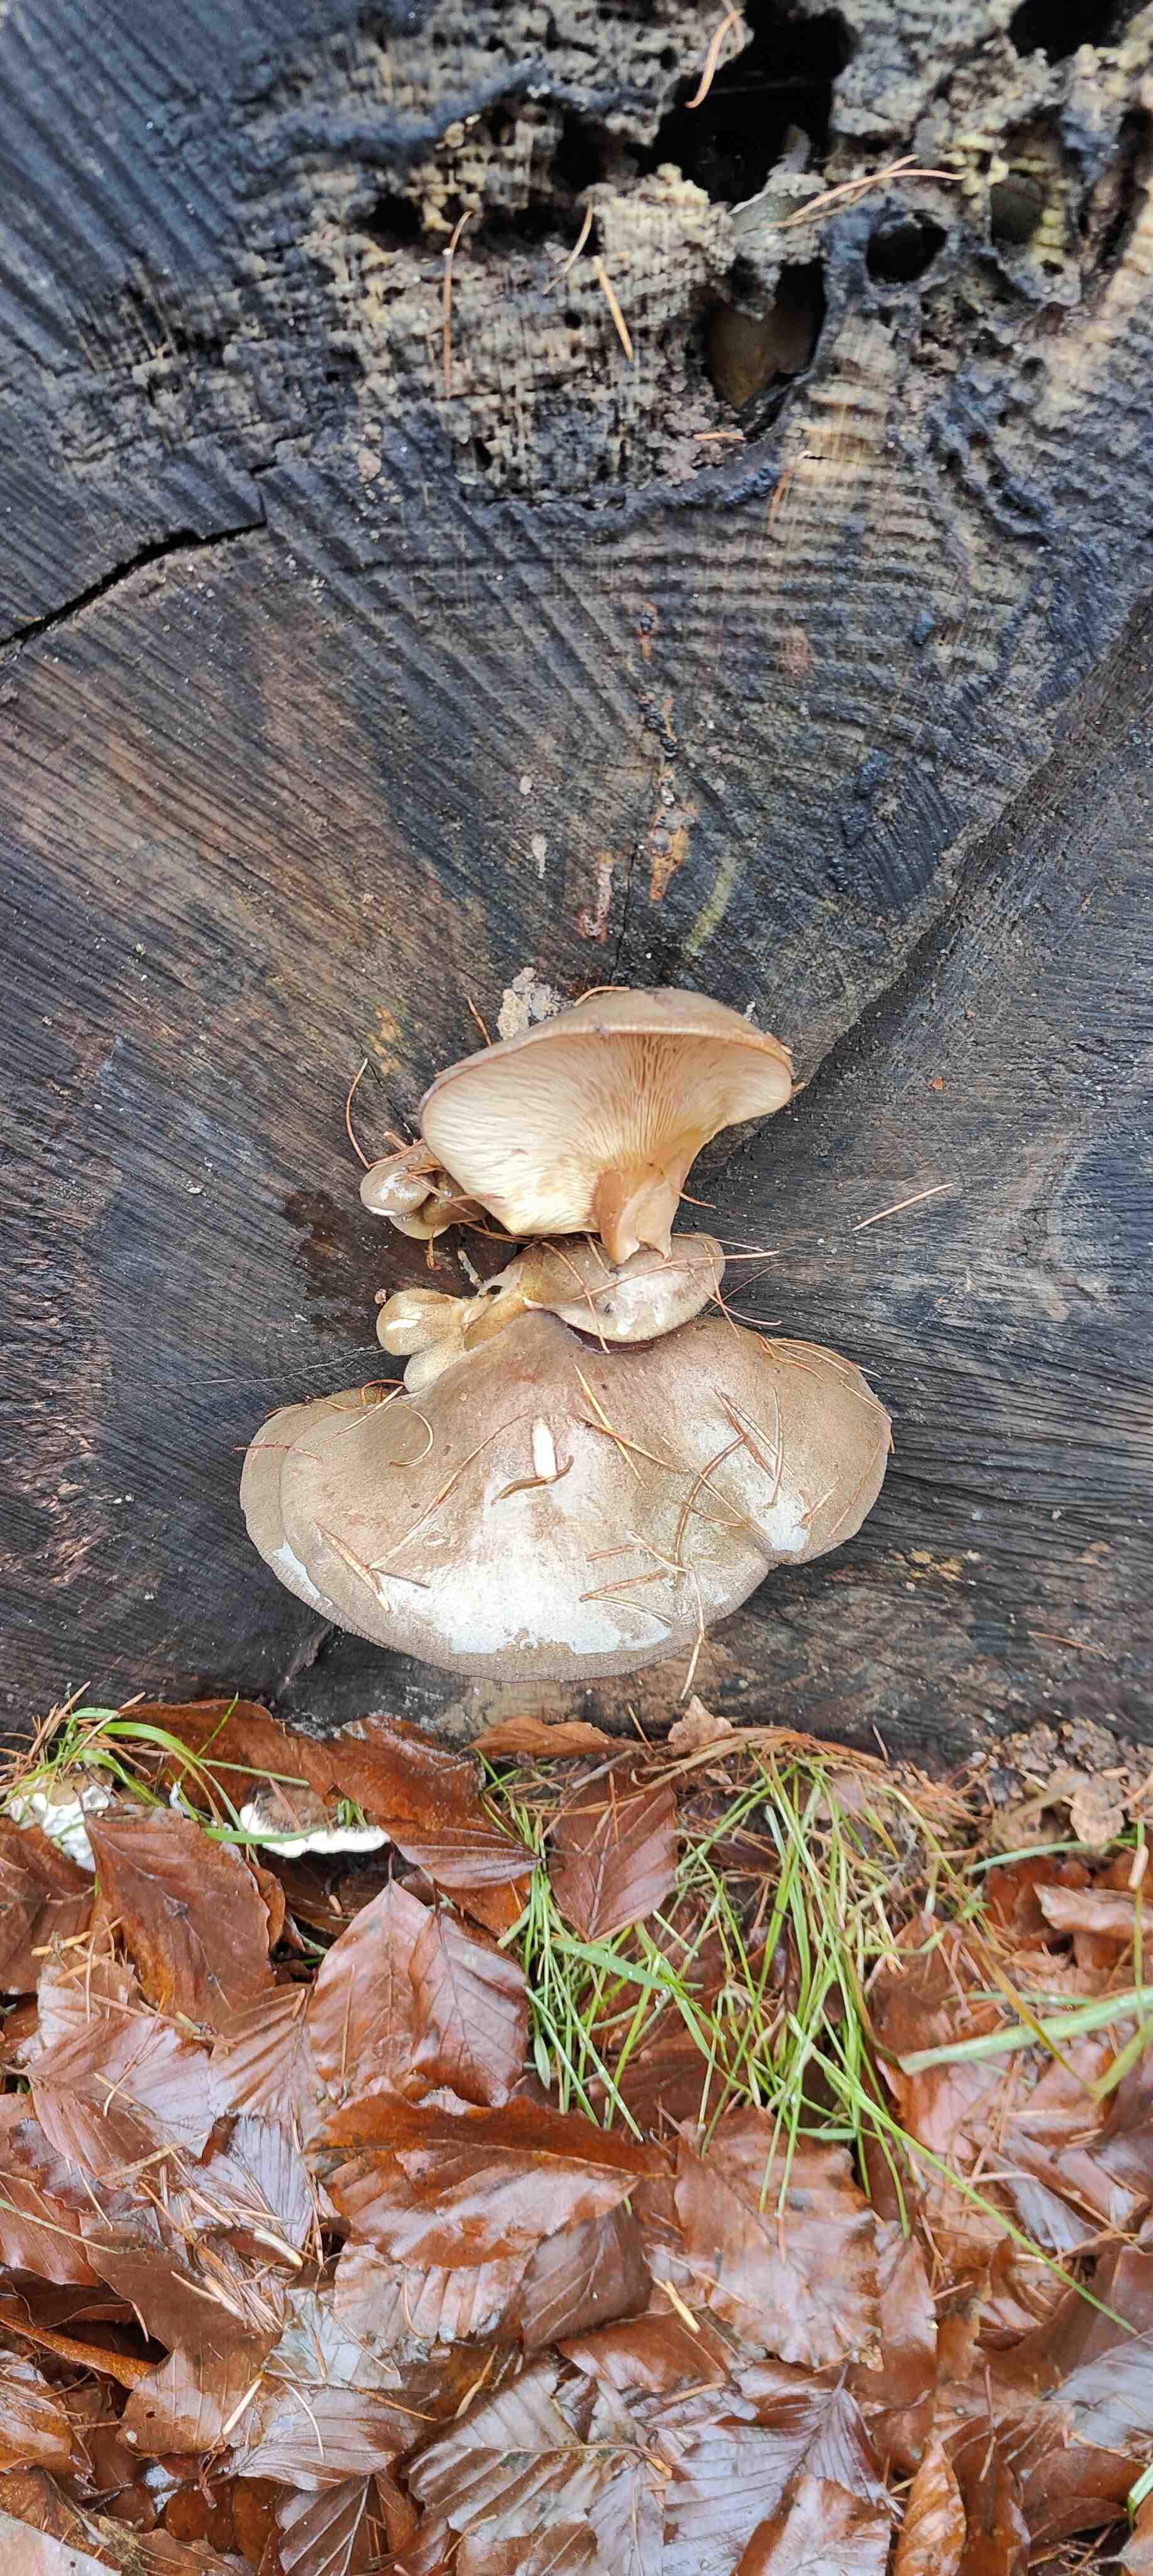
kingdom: Fungi
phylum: Basidiomycota
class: Agaricomycetes
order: Agaricales
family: Sarcomyxaceae
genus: Sarcomyxa
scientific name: Sarcomyxa serotina
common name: gummihat
